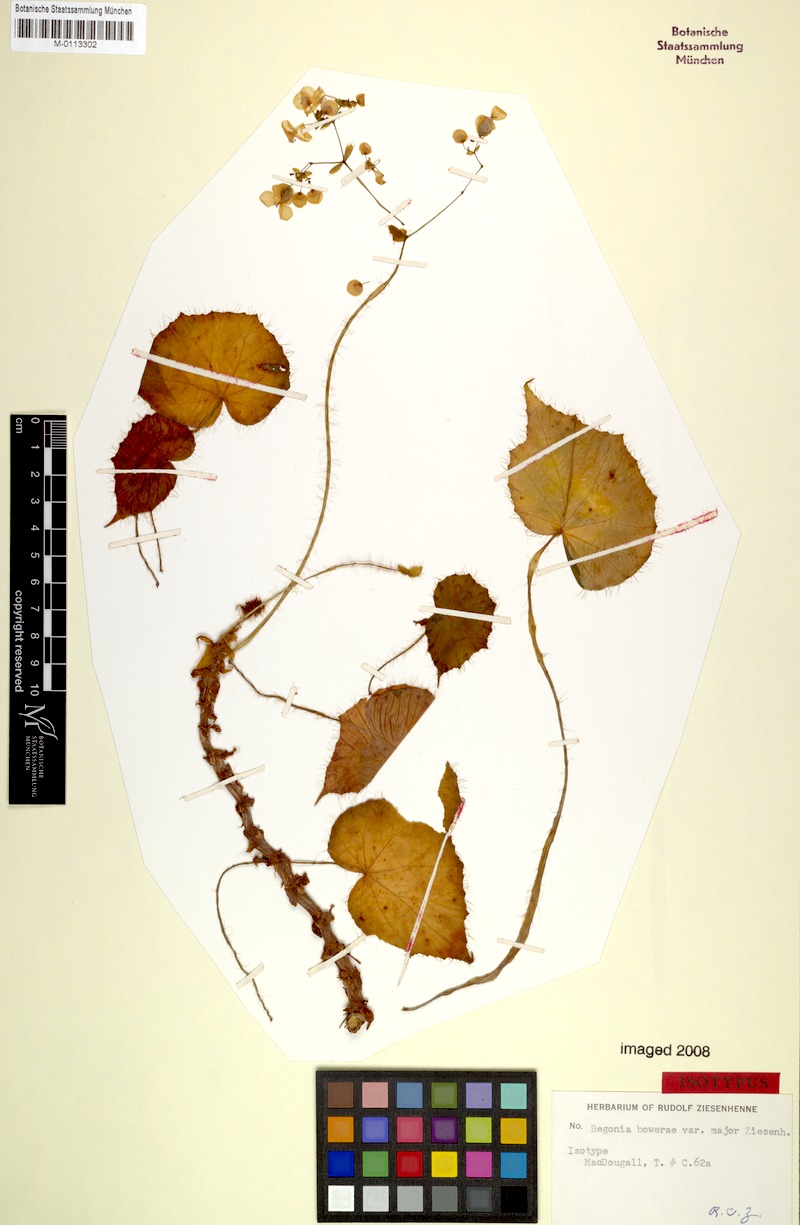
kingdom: Plantae
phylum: Tracheophyta
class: Magnoliopsida
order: Cucurbitales
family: Begoniaceae
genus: Begonia
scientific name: Begonia bowerae
